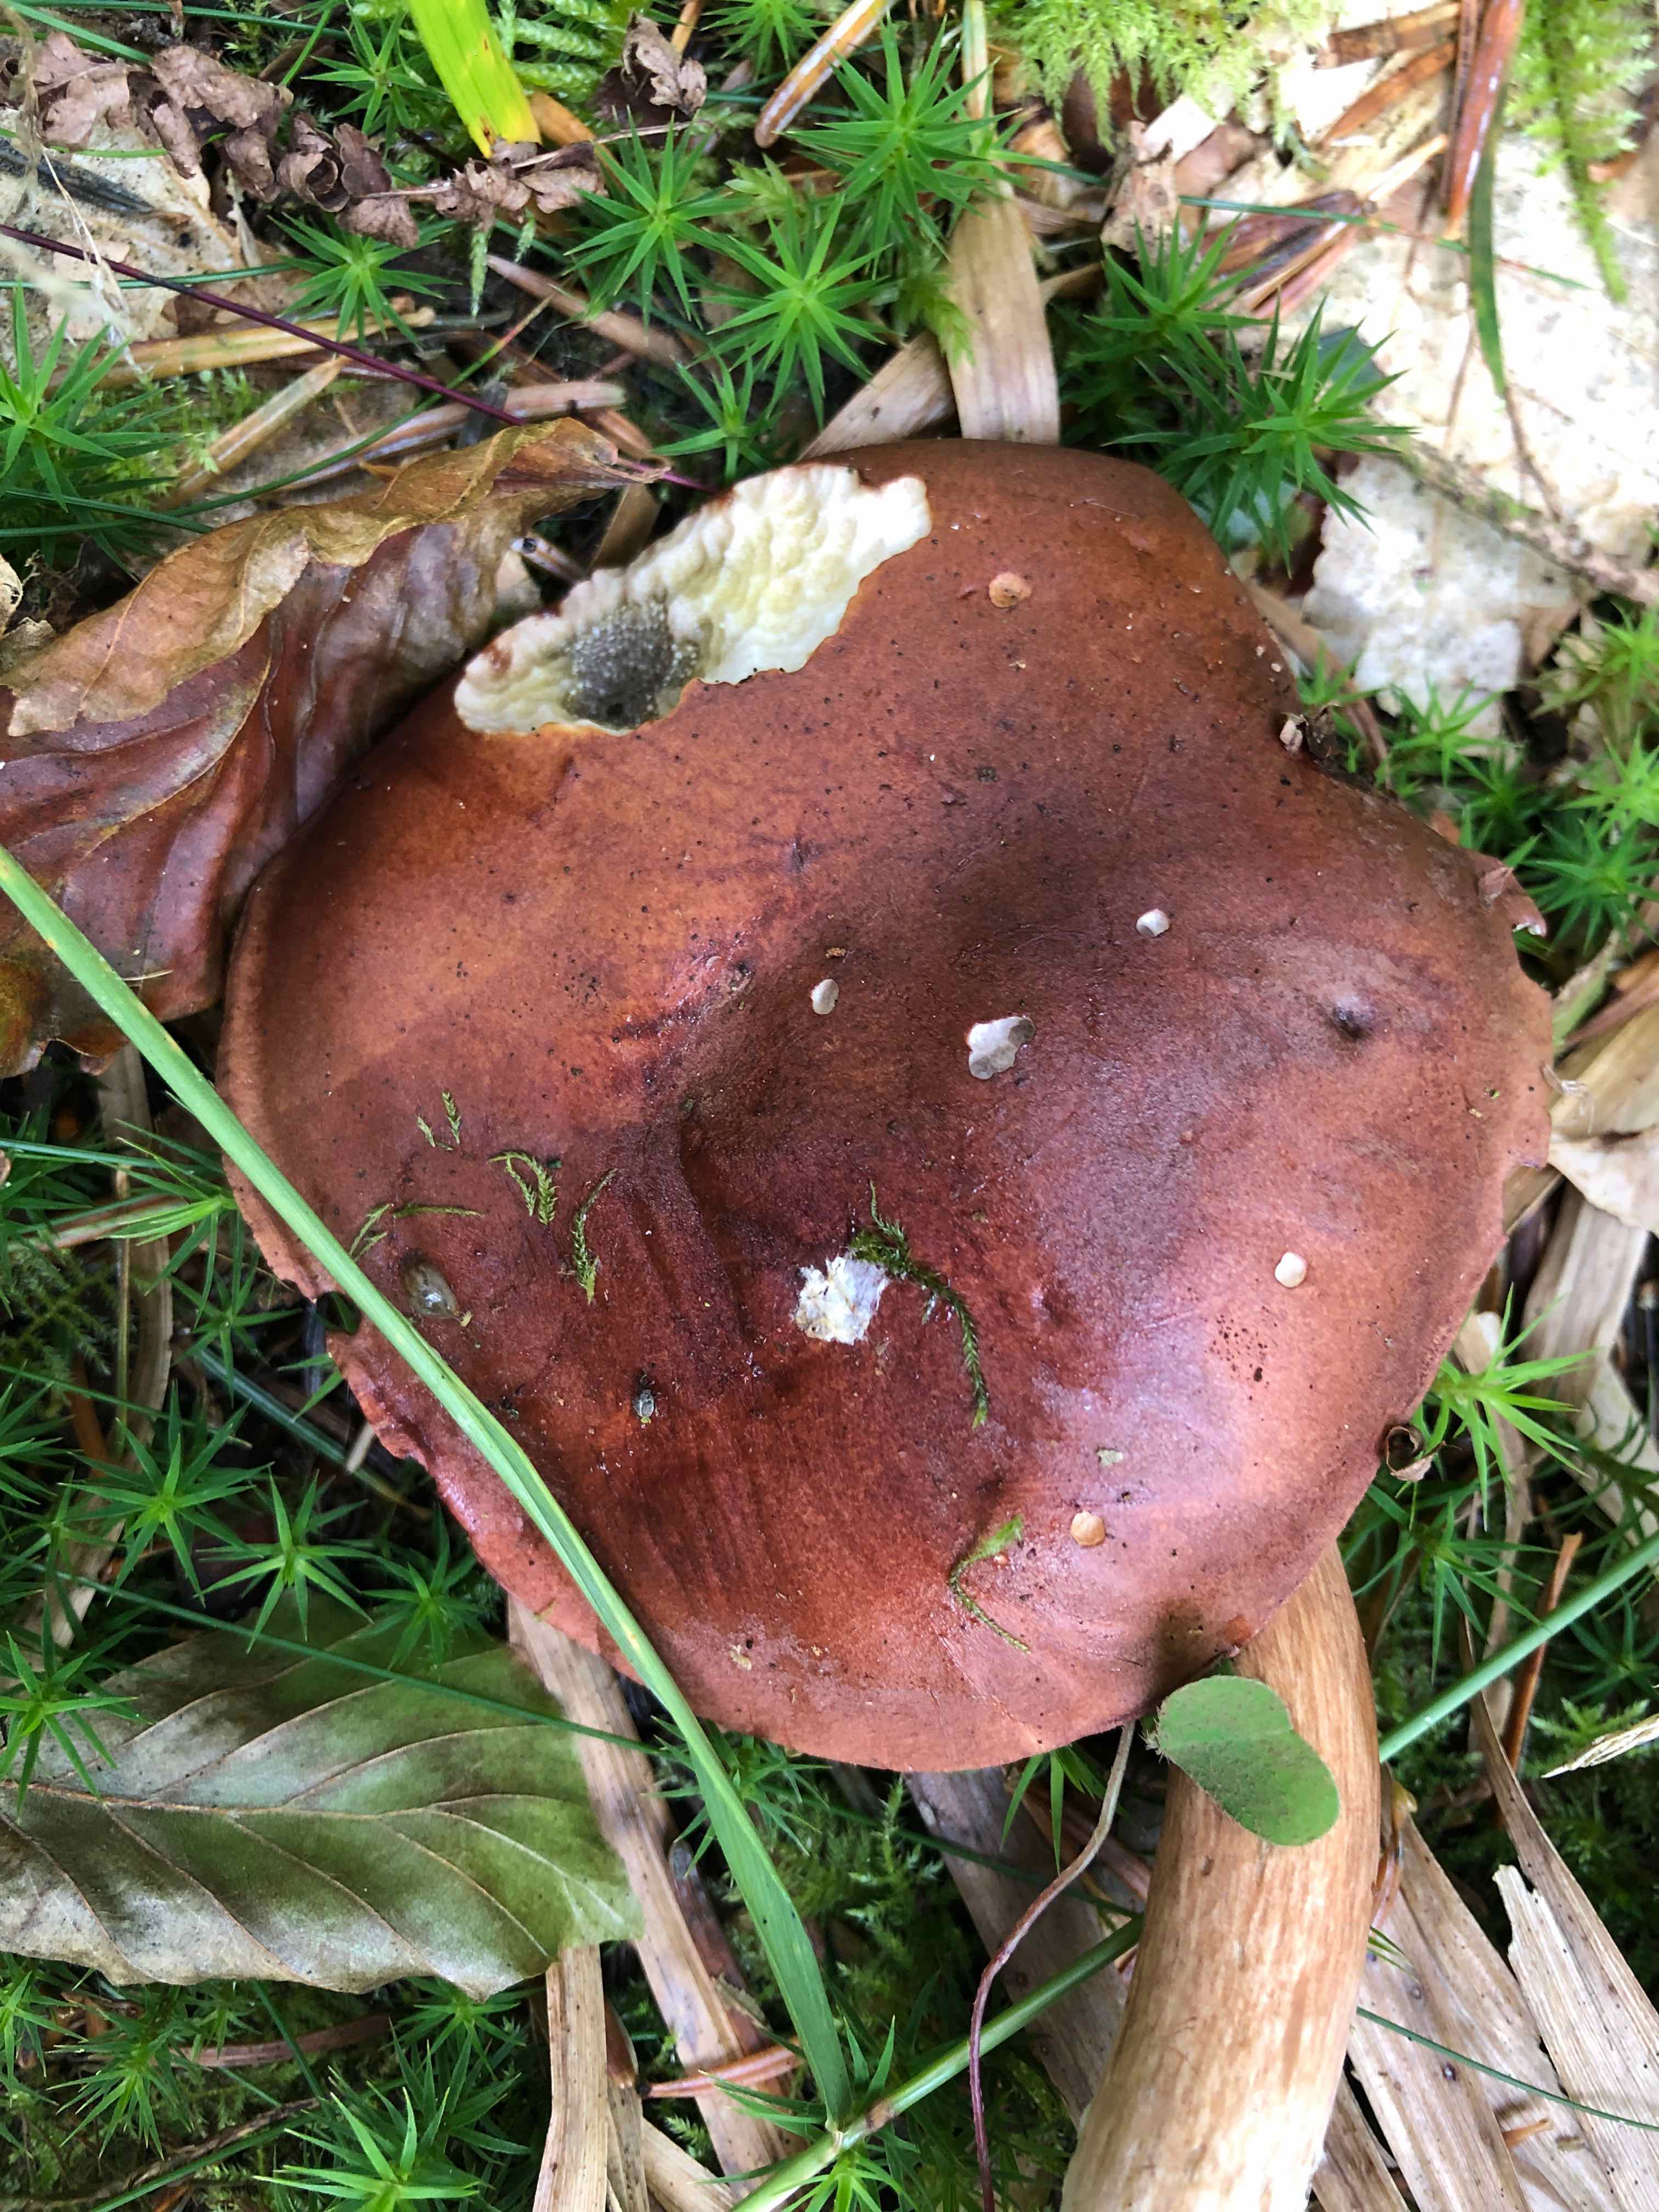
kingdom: Fungi
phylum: Basidiomycota
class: Agaricomycetes
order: Boletales
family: Boletaceae
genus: Imleria
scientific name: Imleria badia
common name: brunstokket rørhat
